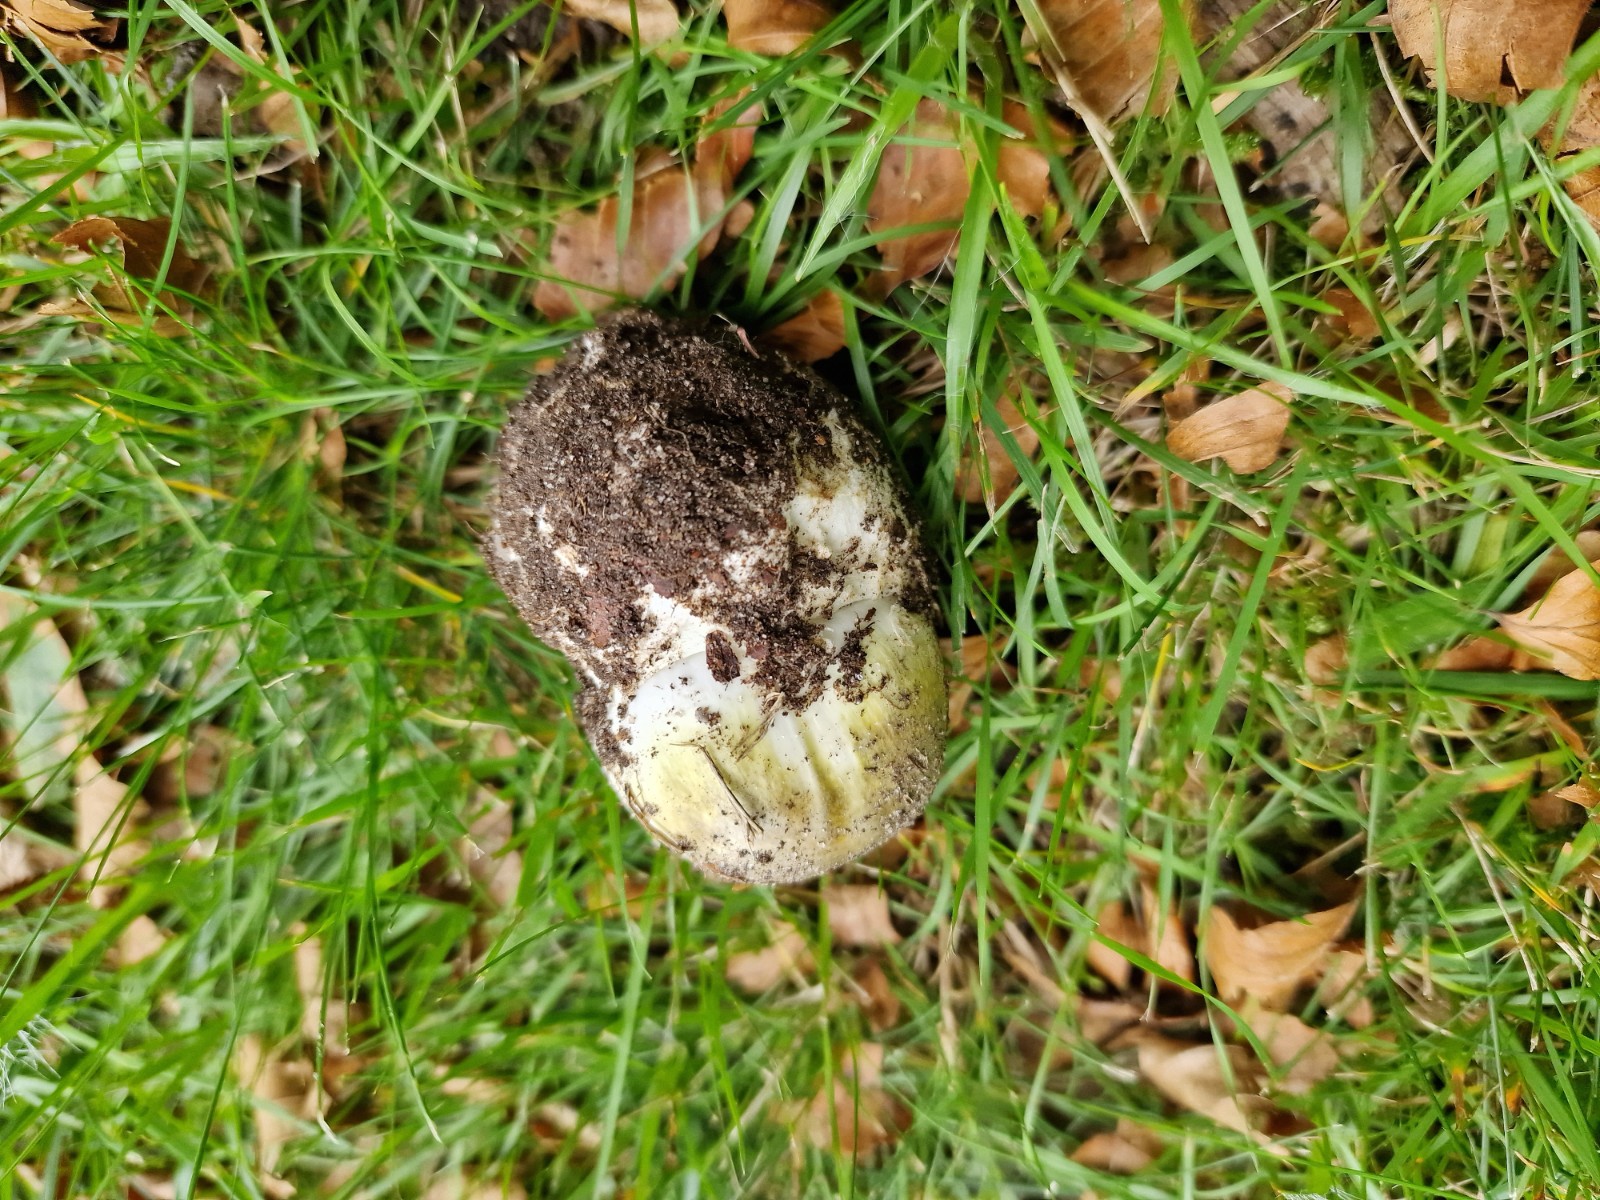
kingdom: Fungi
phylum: Basidiomycota
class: Agaricomycetes
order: Agaricales
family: Amanitaceae
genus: Amanita
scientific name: Amanita phalloides
